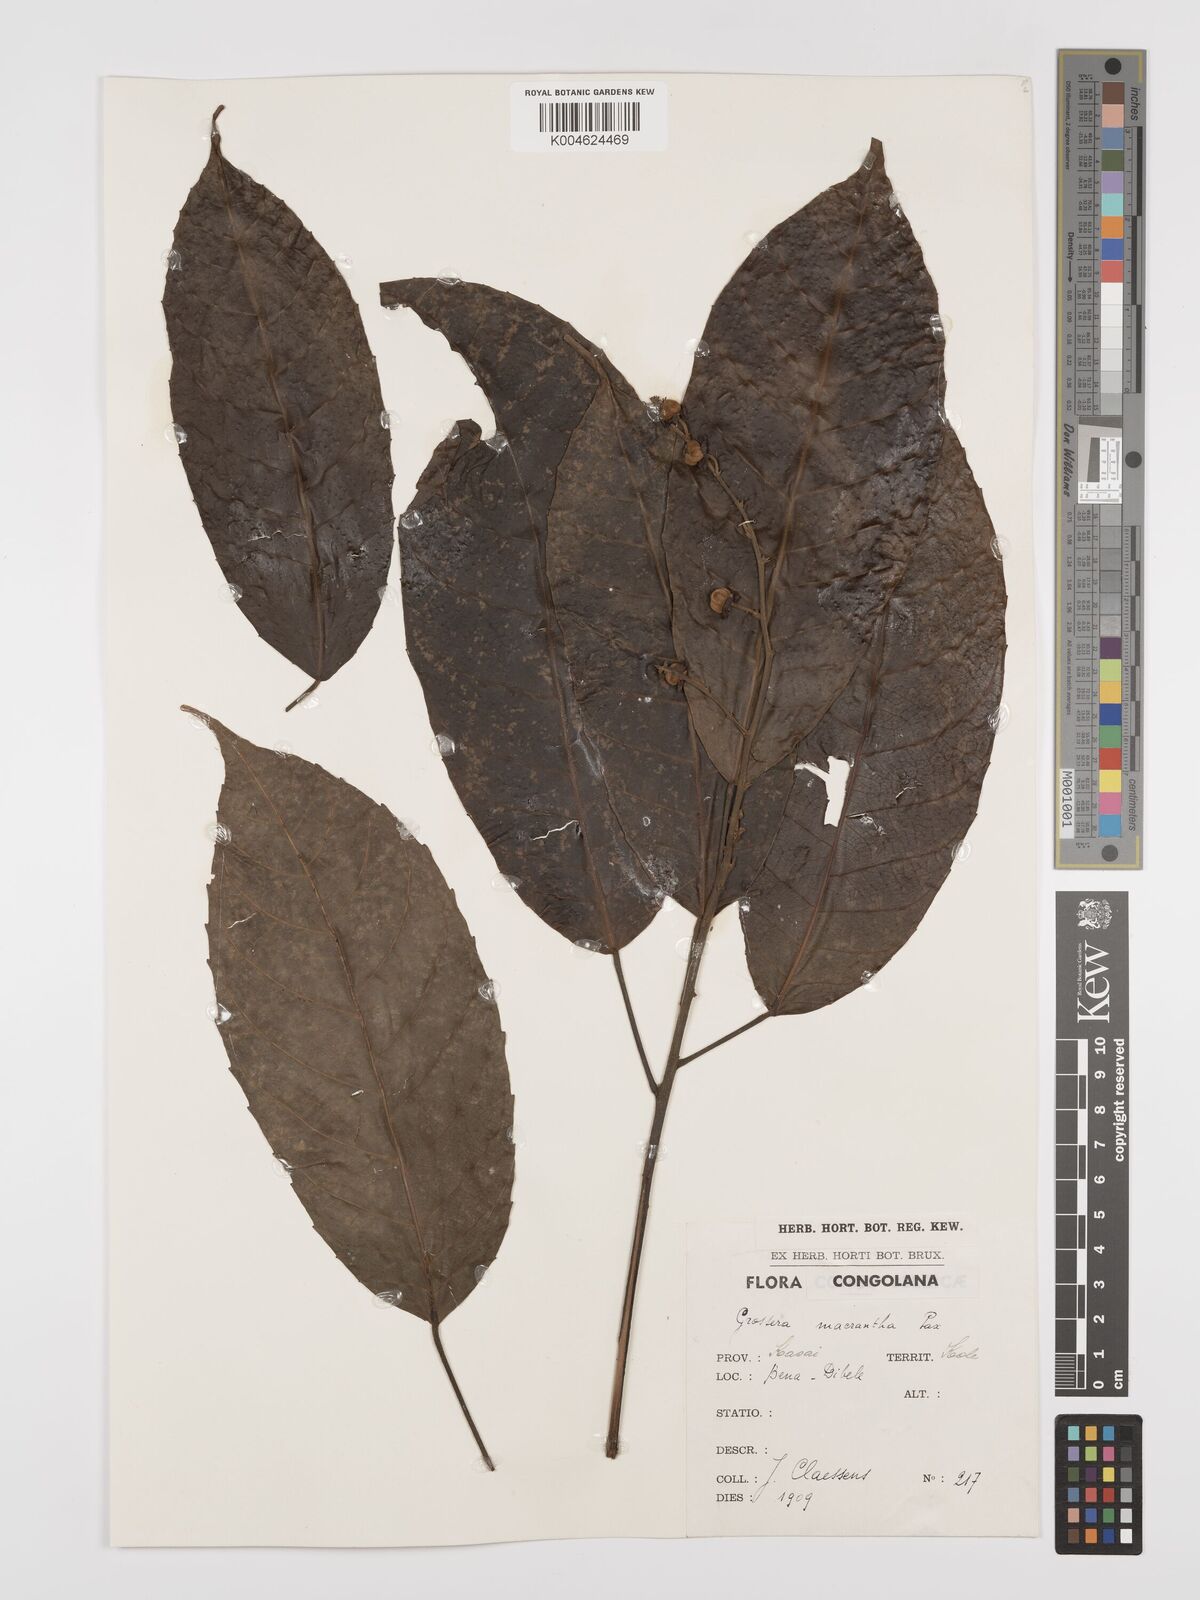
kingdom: Plantae
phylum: Tracheophyta
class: Magnoliopsida
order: Malpighiales
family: Euphorbiaceae
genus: Grossera
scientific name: Grossera macrantha
